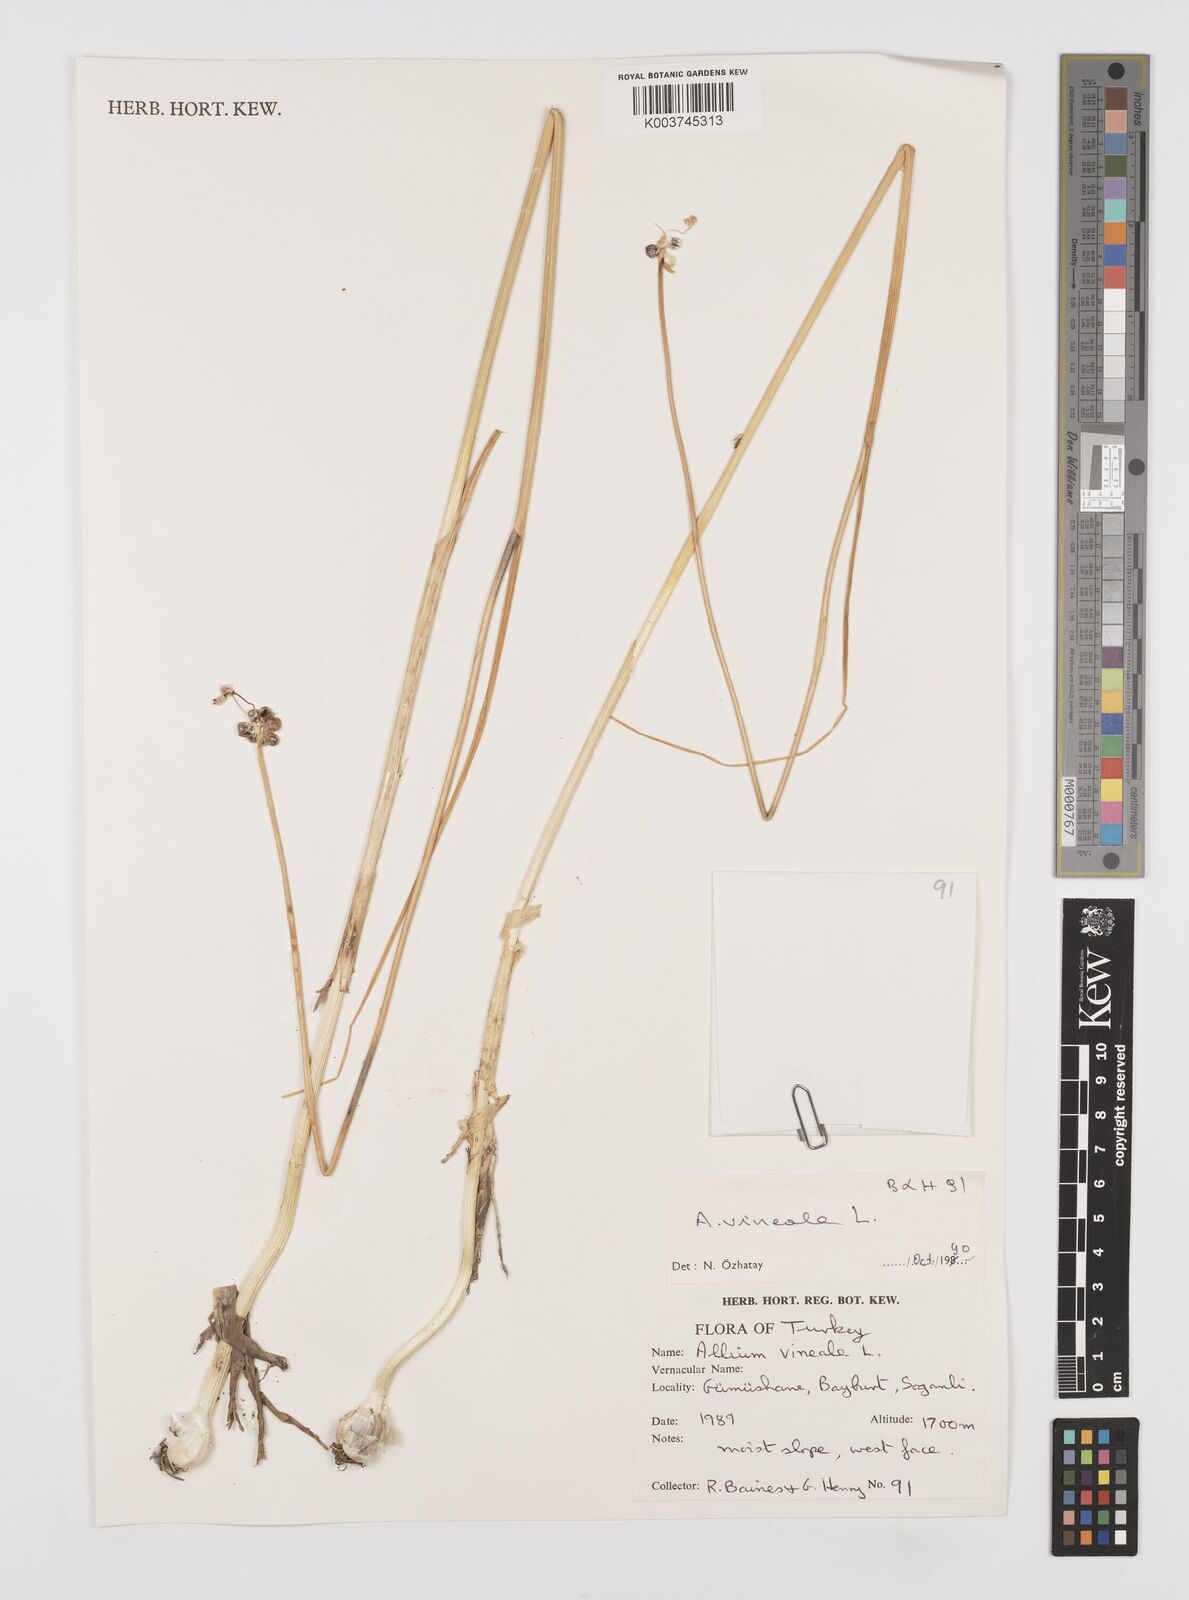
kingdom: Plantae
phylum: Tracheophyta
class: Liliopsida
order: Asparagales
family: Amaryllidaceae
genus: Allium
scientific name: Allium vineale
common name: Crow garlic
